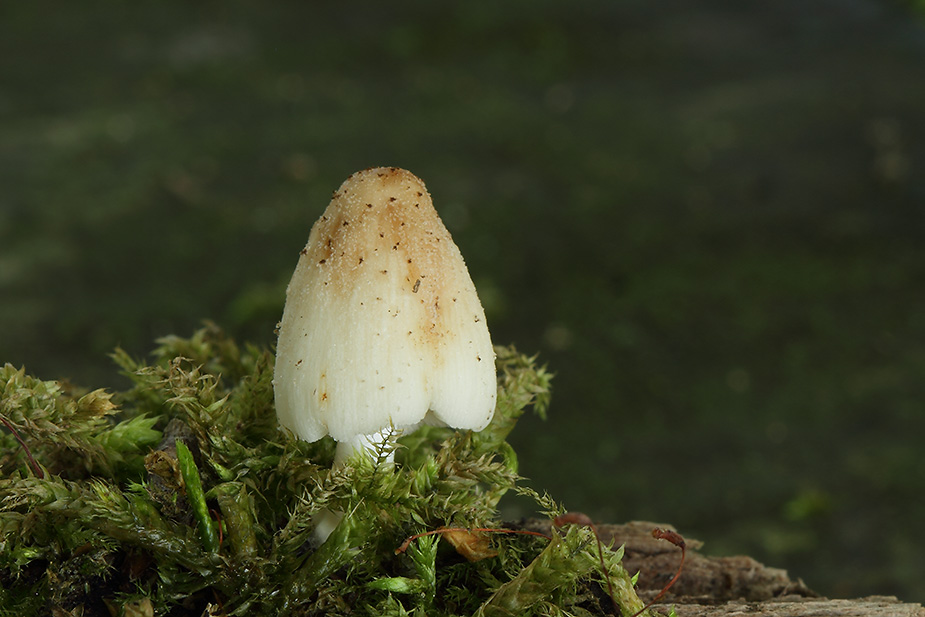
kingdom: Fungi
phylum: Basidiomycota
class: Agaricomycetes
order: Agaricales
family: Psathyrellaceae
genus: Coprinellus
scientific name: Coprinellus xanthothrix
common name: gultrådet blækhat
